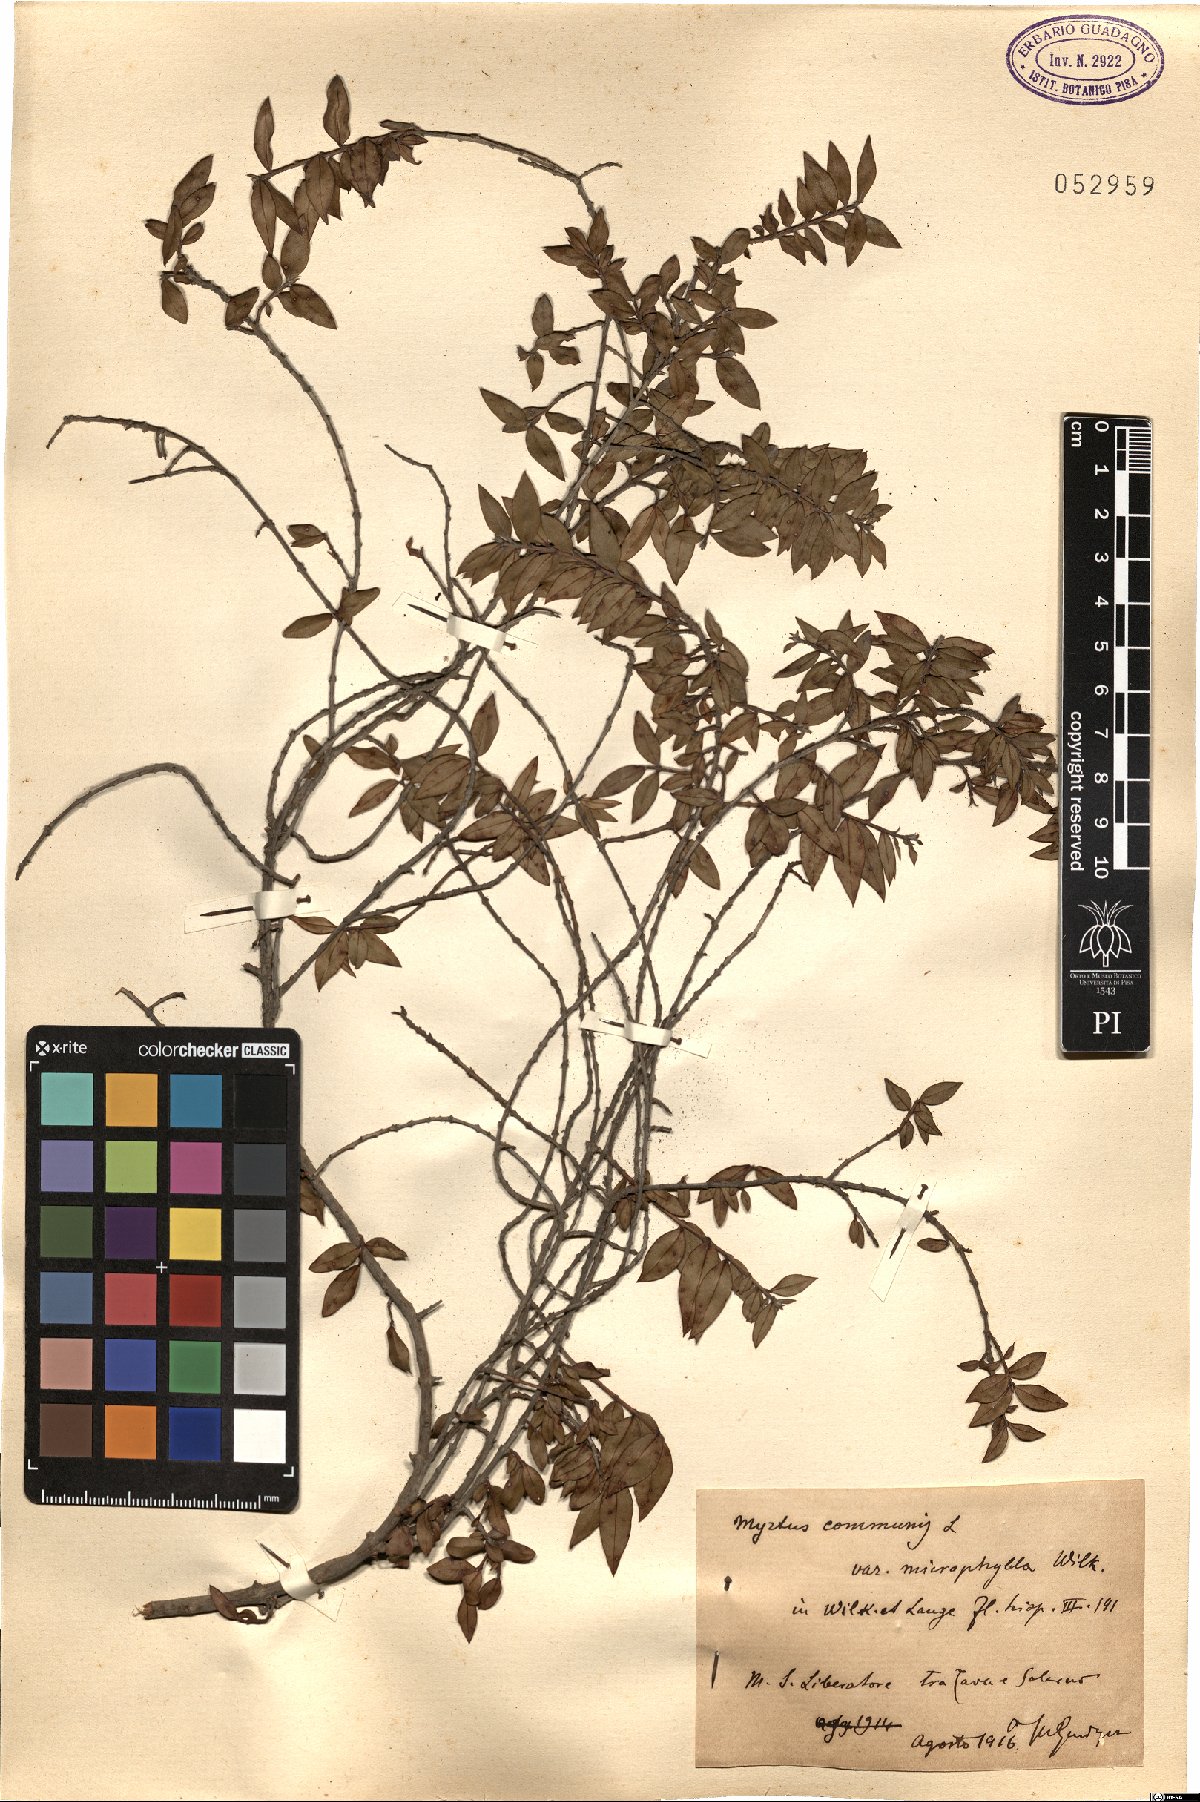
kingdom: Plantae
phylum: Tracheophyta
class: Magnoliopsida
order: Myrtales
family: Myrtaceae
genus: Myrtus
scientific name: Myrtus communis
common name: Myrtle
